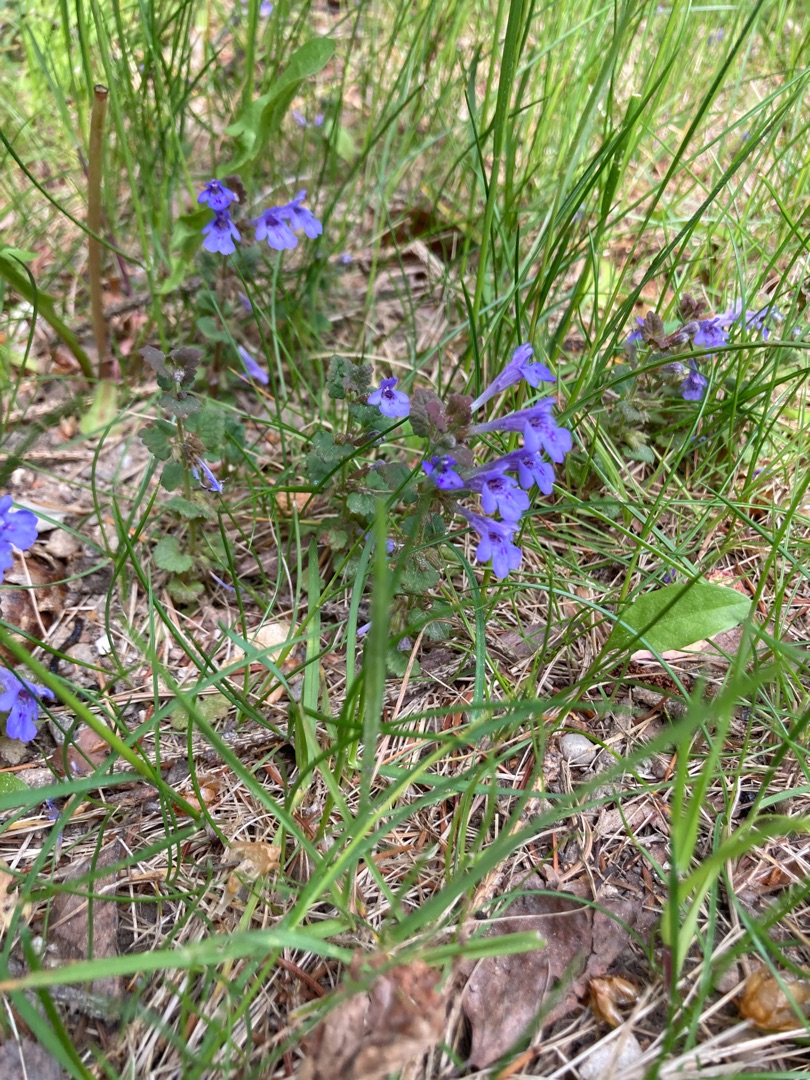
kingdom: Plantae
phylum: Tracheophyta
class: Magnoliopsida
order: Lamiales
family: Lamiaceae
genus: Glechoma
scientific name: Glechoma hederacea
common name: Korsknap
